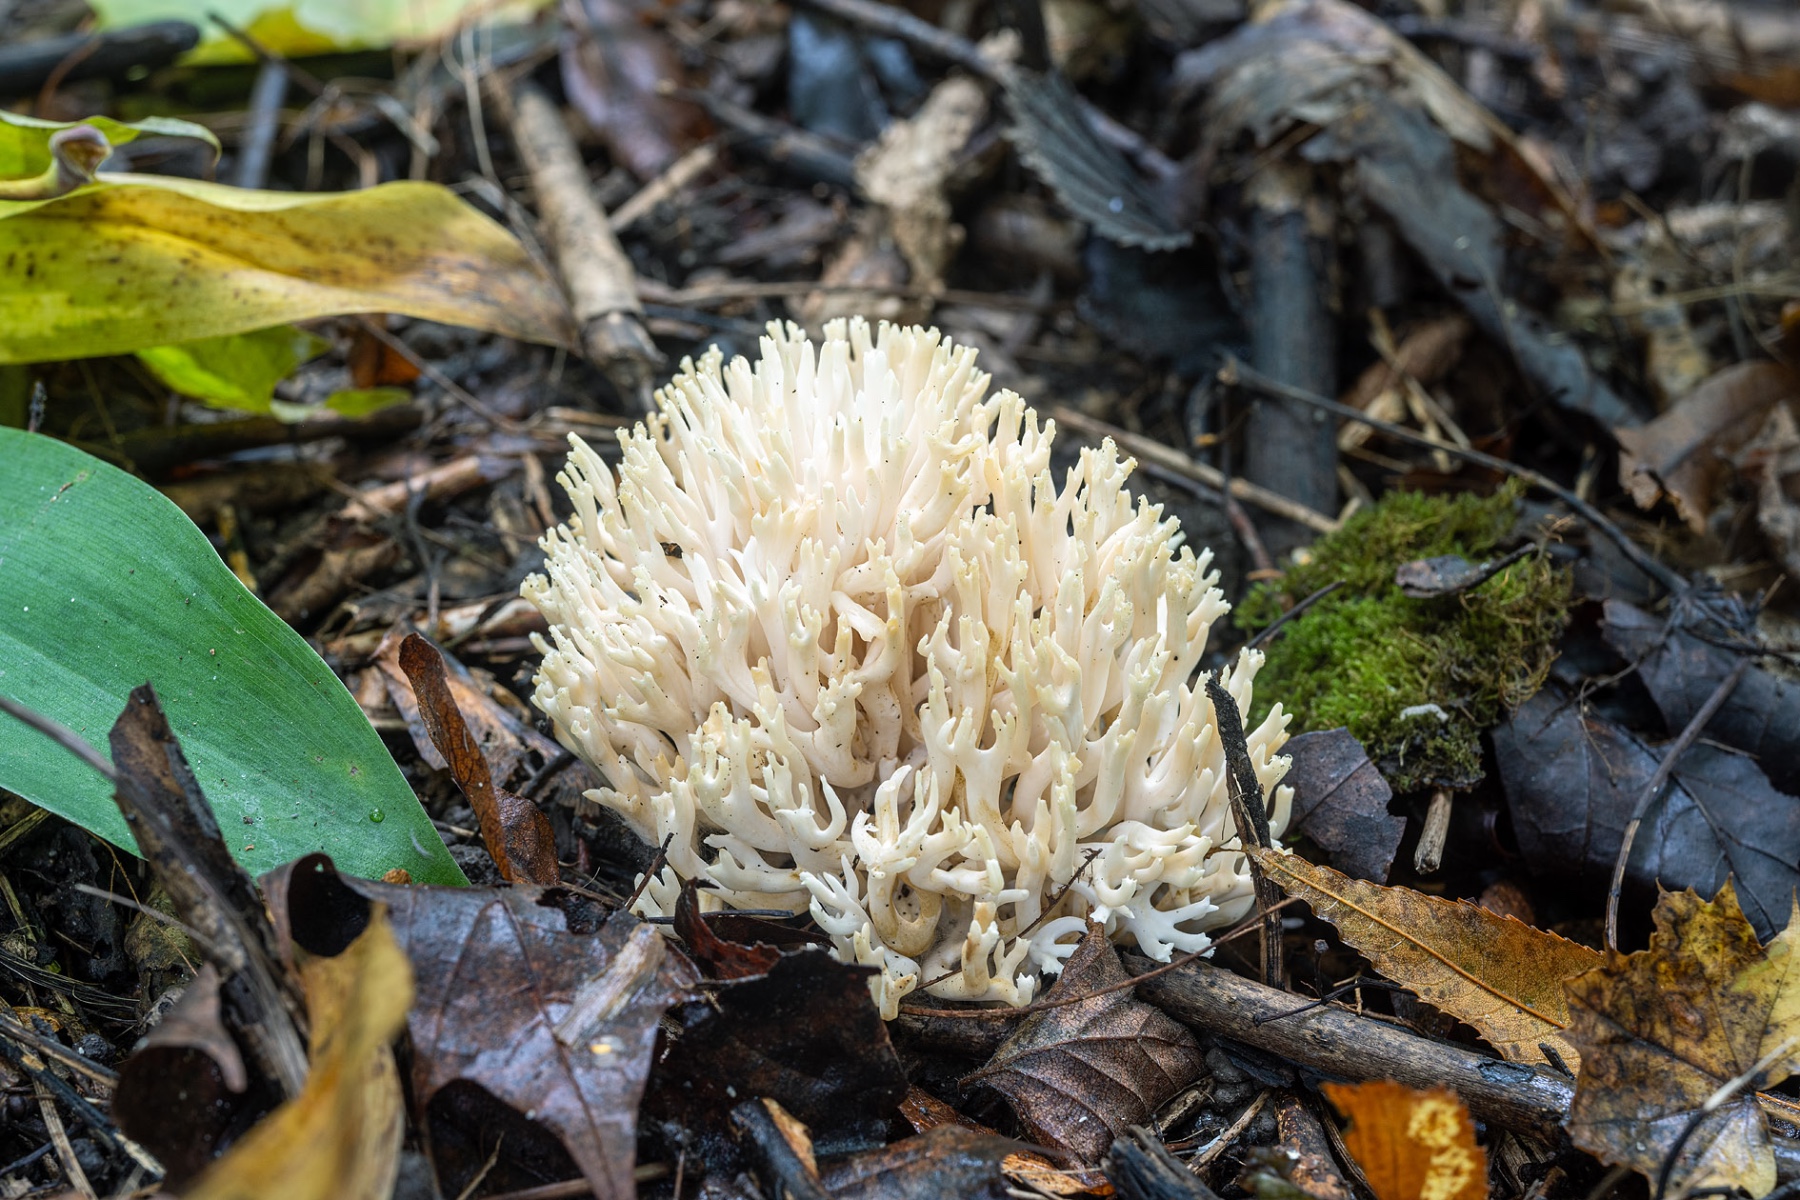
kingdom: Fungi
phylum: Basidiomycota
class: Agaricomycetes
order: Agaricales
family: Clavariaceae
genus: Ramariopsis
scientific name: Ramariopsis robusta
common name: tykgrenet køllesvamp
